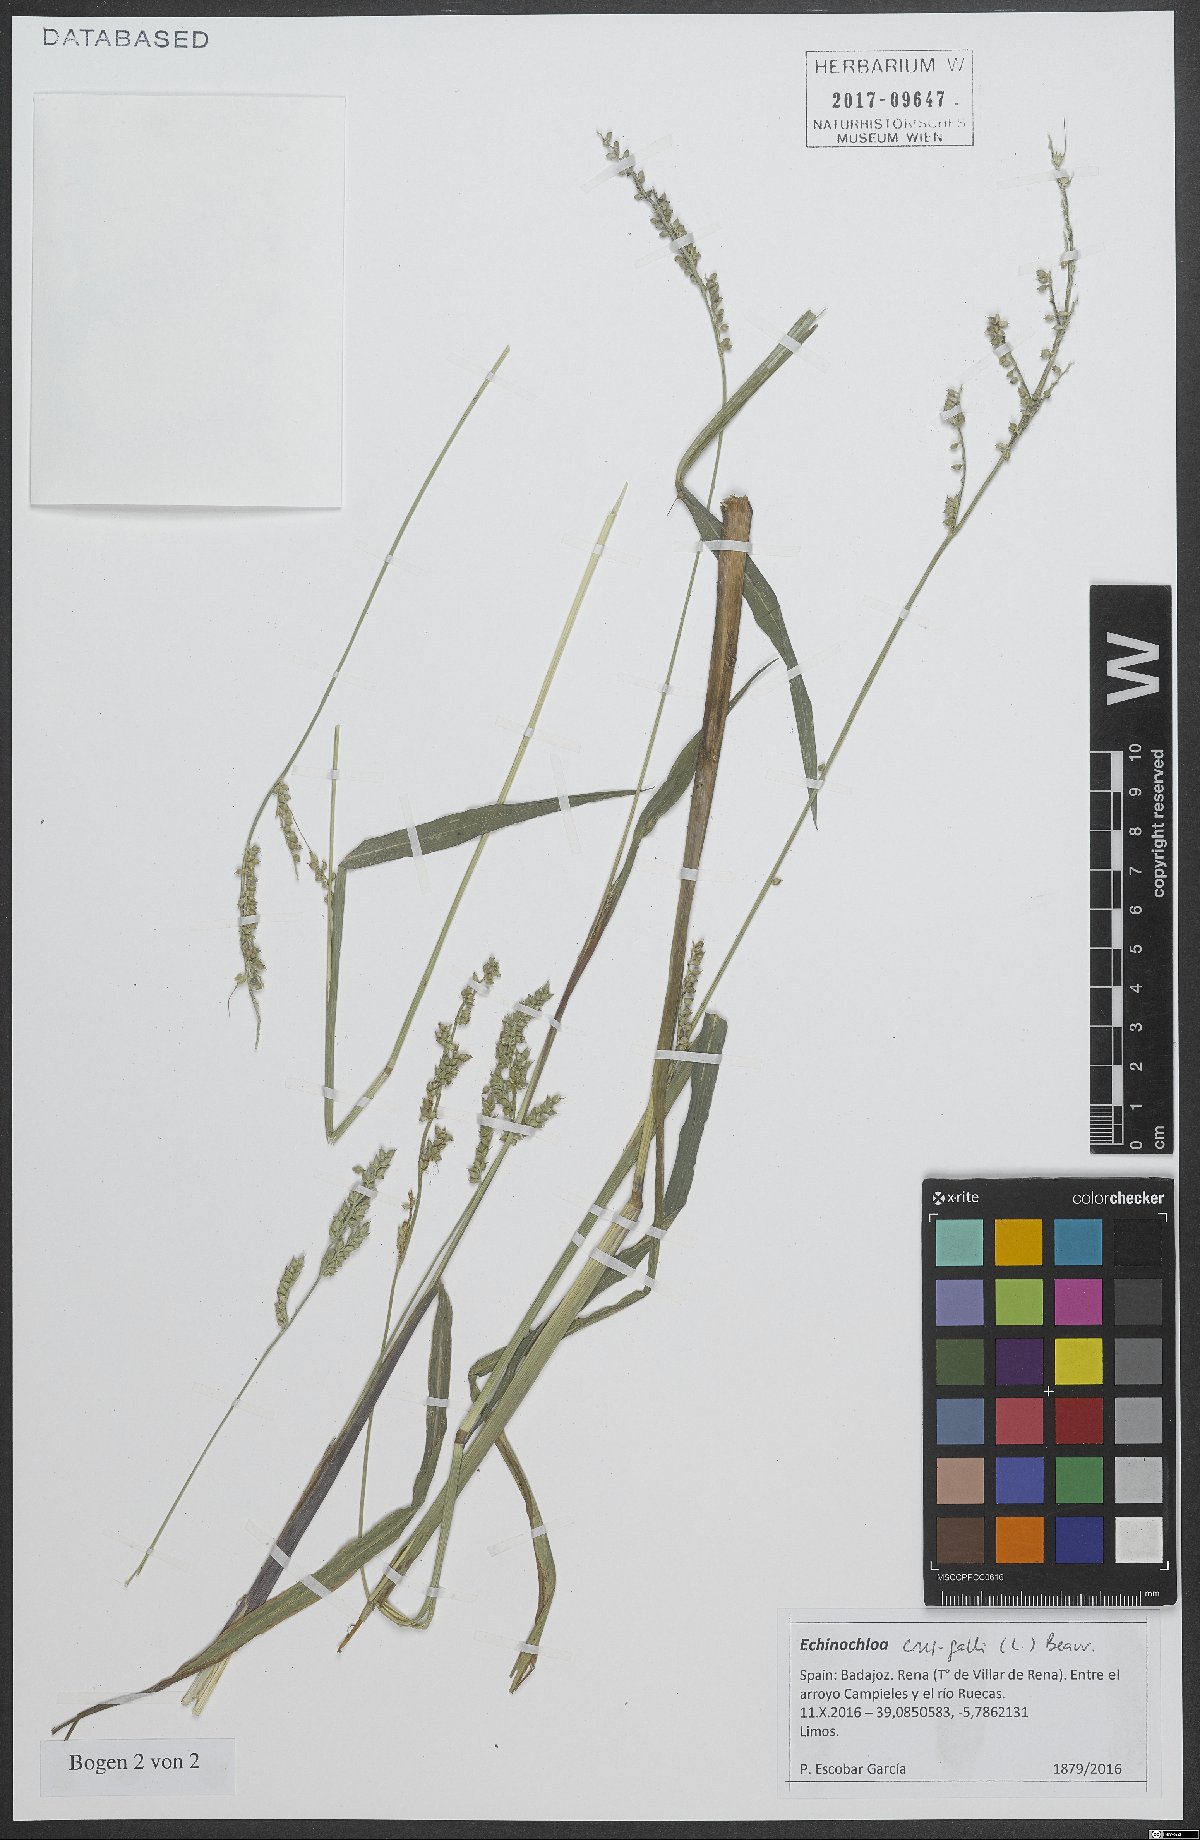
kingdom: Plantae
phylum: Tracheophyta
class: Liliopsida
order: Poales
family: Poaceae
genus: Echinochloa
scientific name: Echinochloa crus-galli
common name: Cockspur
